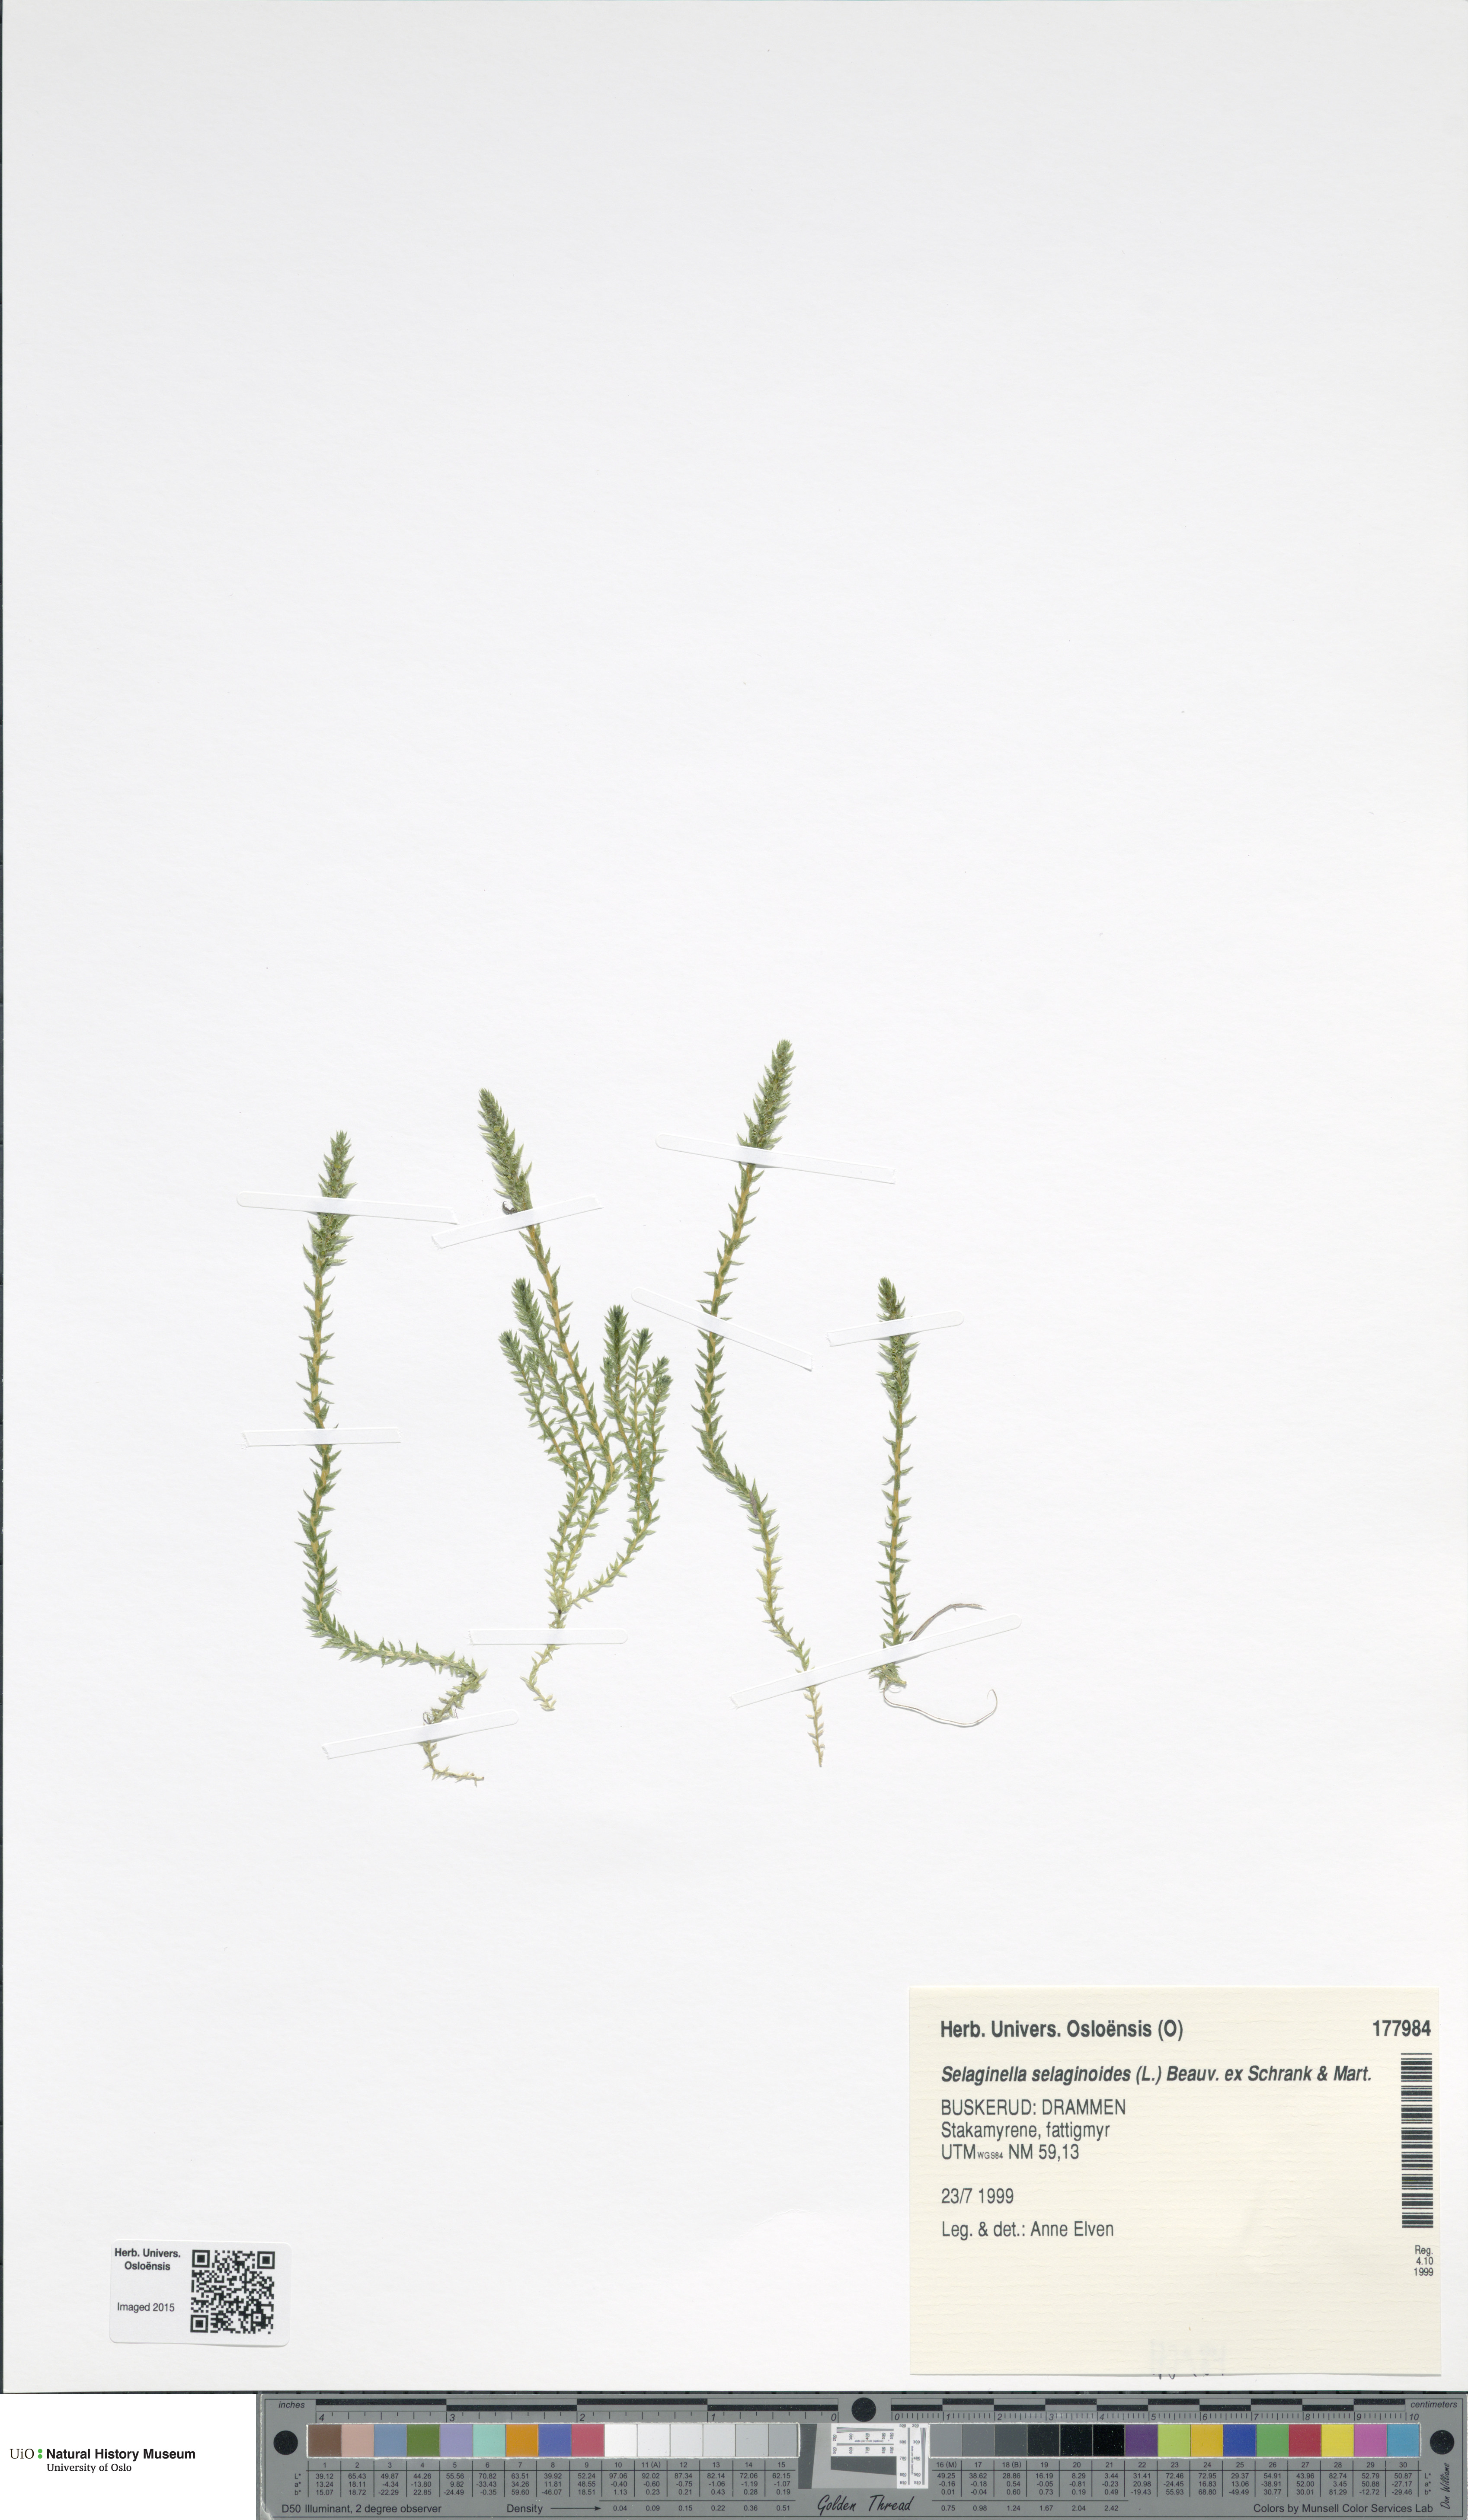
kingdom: Plantae
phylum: Tracheophyta
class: Lycopodiopsida
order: Selaginellales
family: Selaginellaceae
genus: Selaginella
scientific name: Selaginella selaginoides
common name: Prickly mountain-moss
